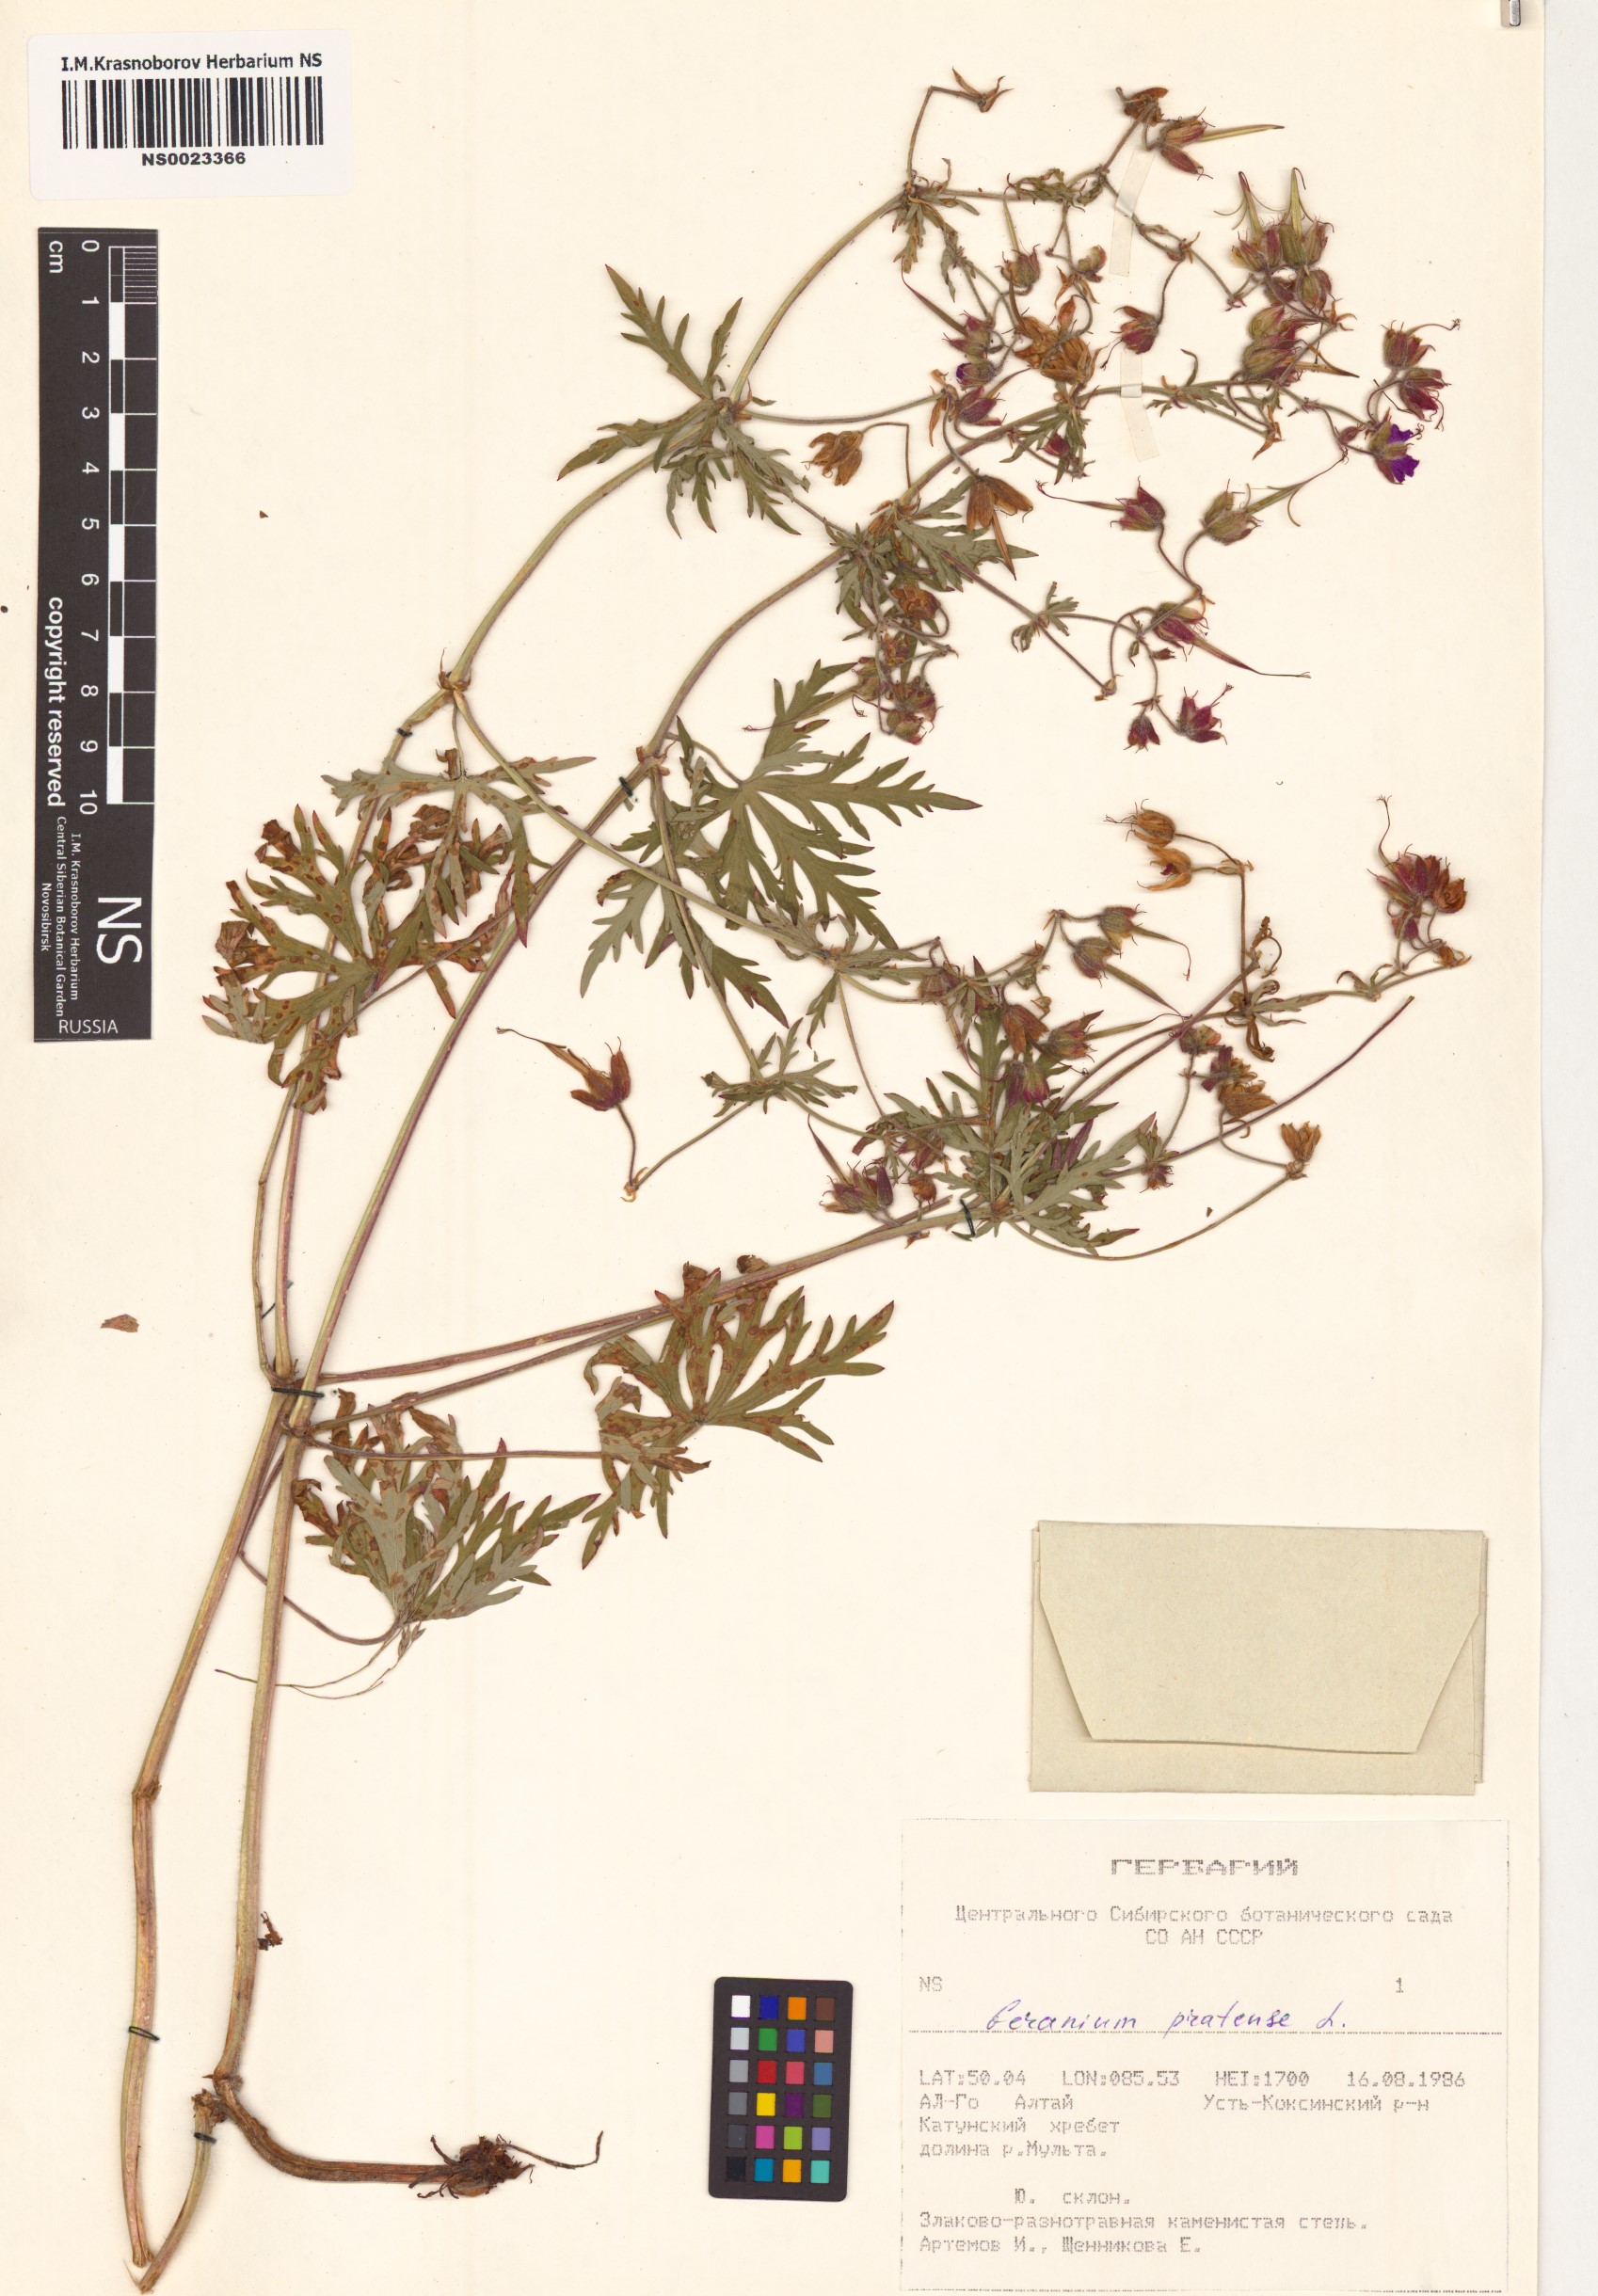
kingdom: Plantae
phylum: Tracheophyta
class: Magnoliopsida
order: Geraniales
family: Geraniaceae
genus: Geranium
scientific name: Geranium pratense
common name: Meadow crane's-bill
